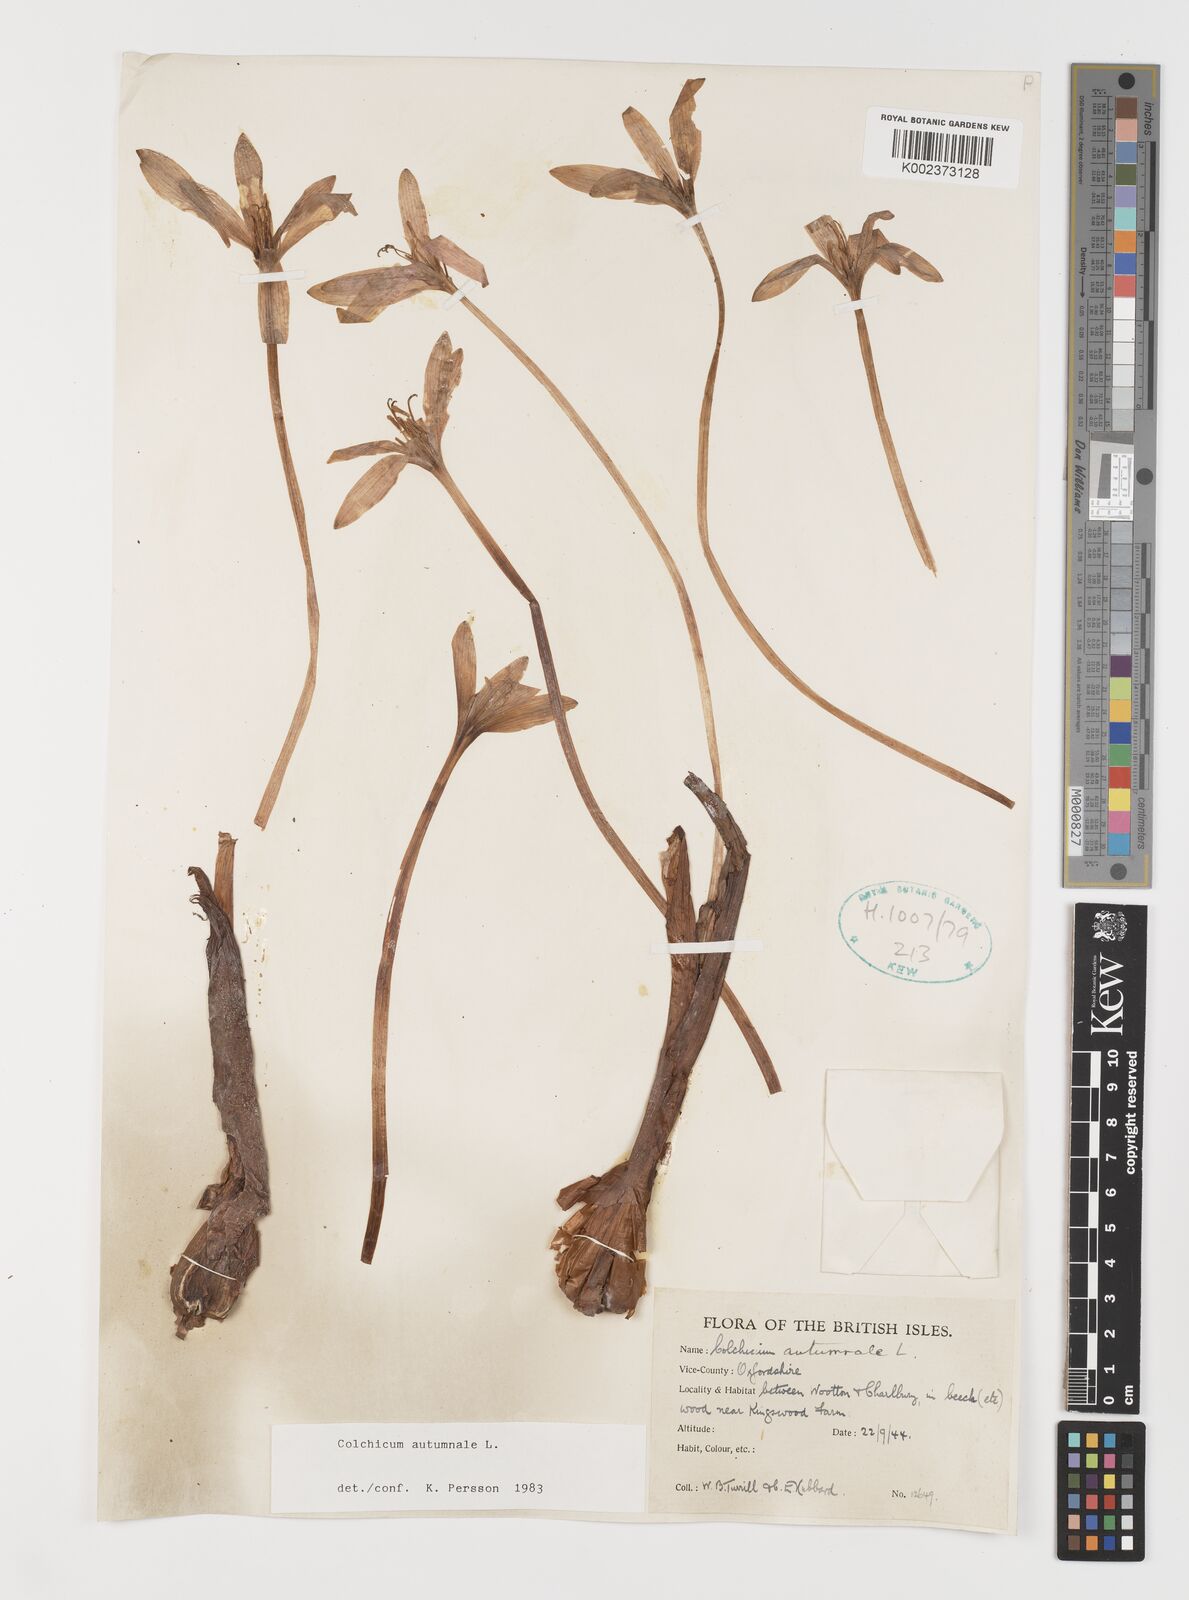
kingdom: Plantae
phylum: Tracheophyta
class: Liliopsida
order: Liliales
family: Colchicaceae
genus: Colchicum
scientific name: Colchicum autumnale
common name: Autumn crocus
